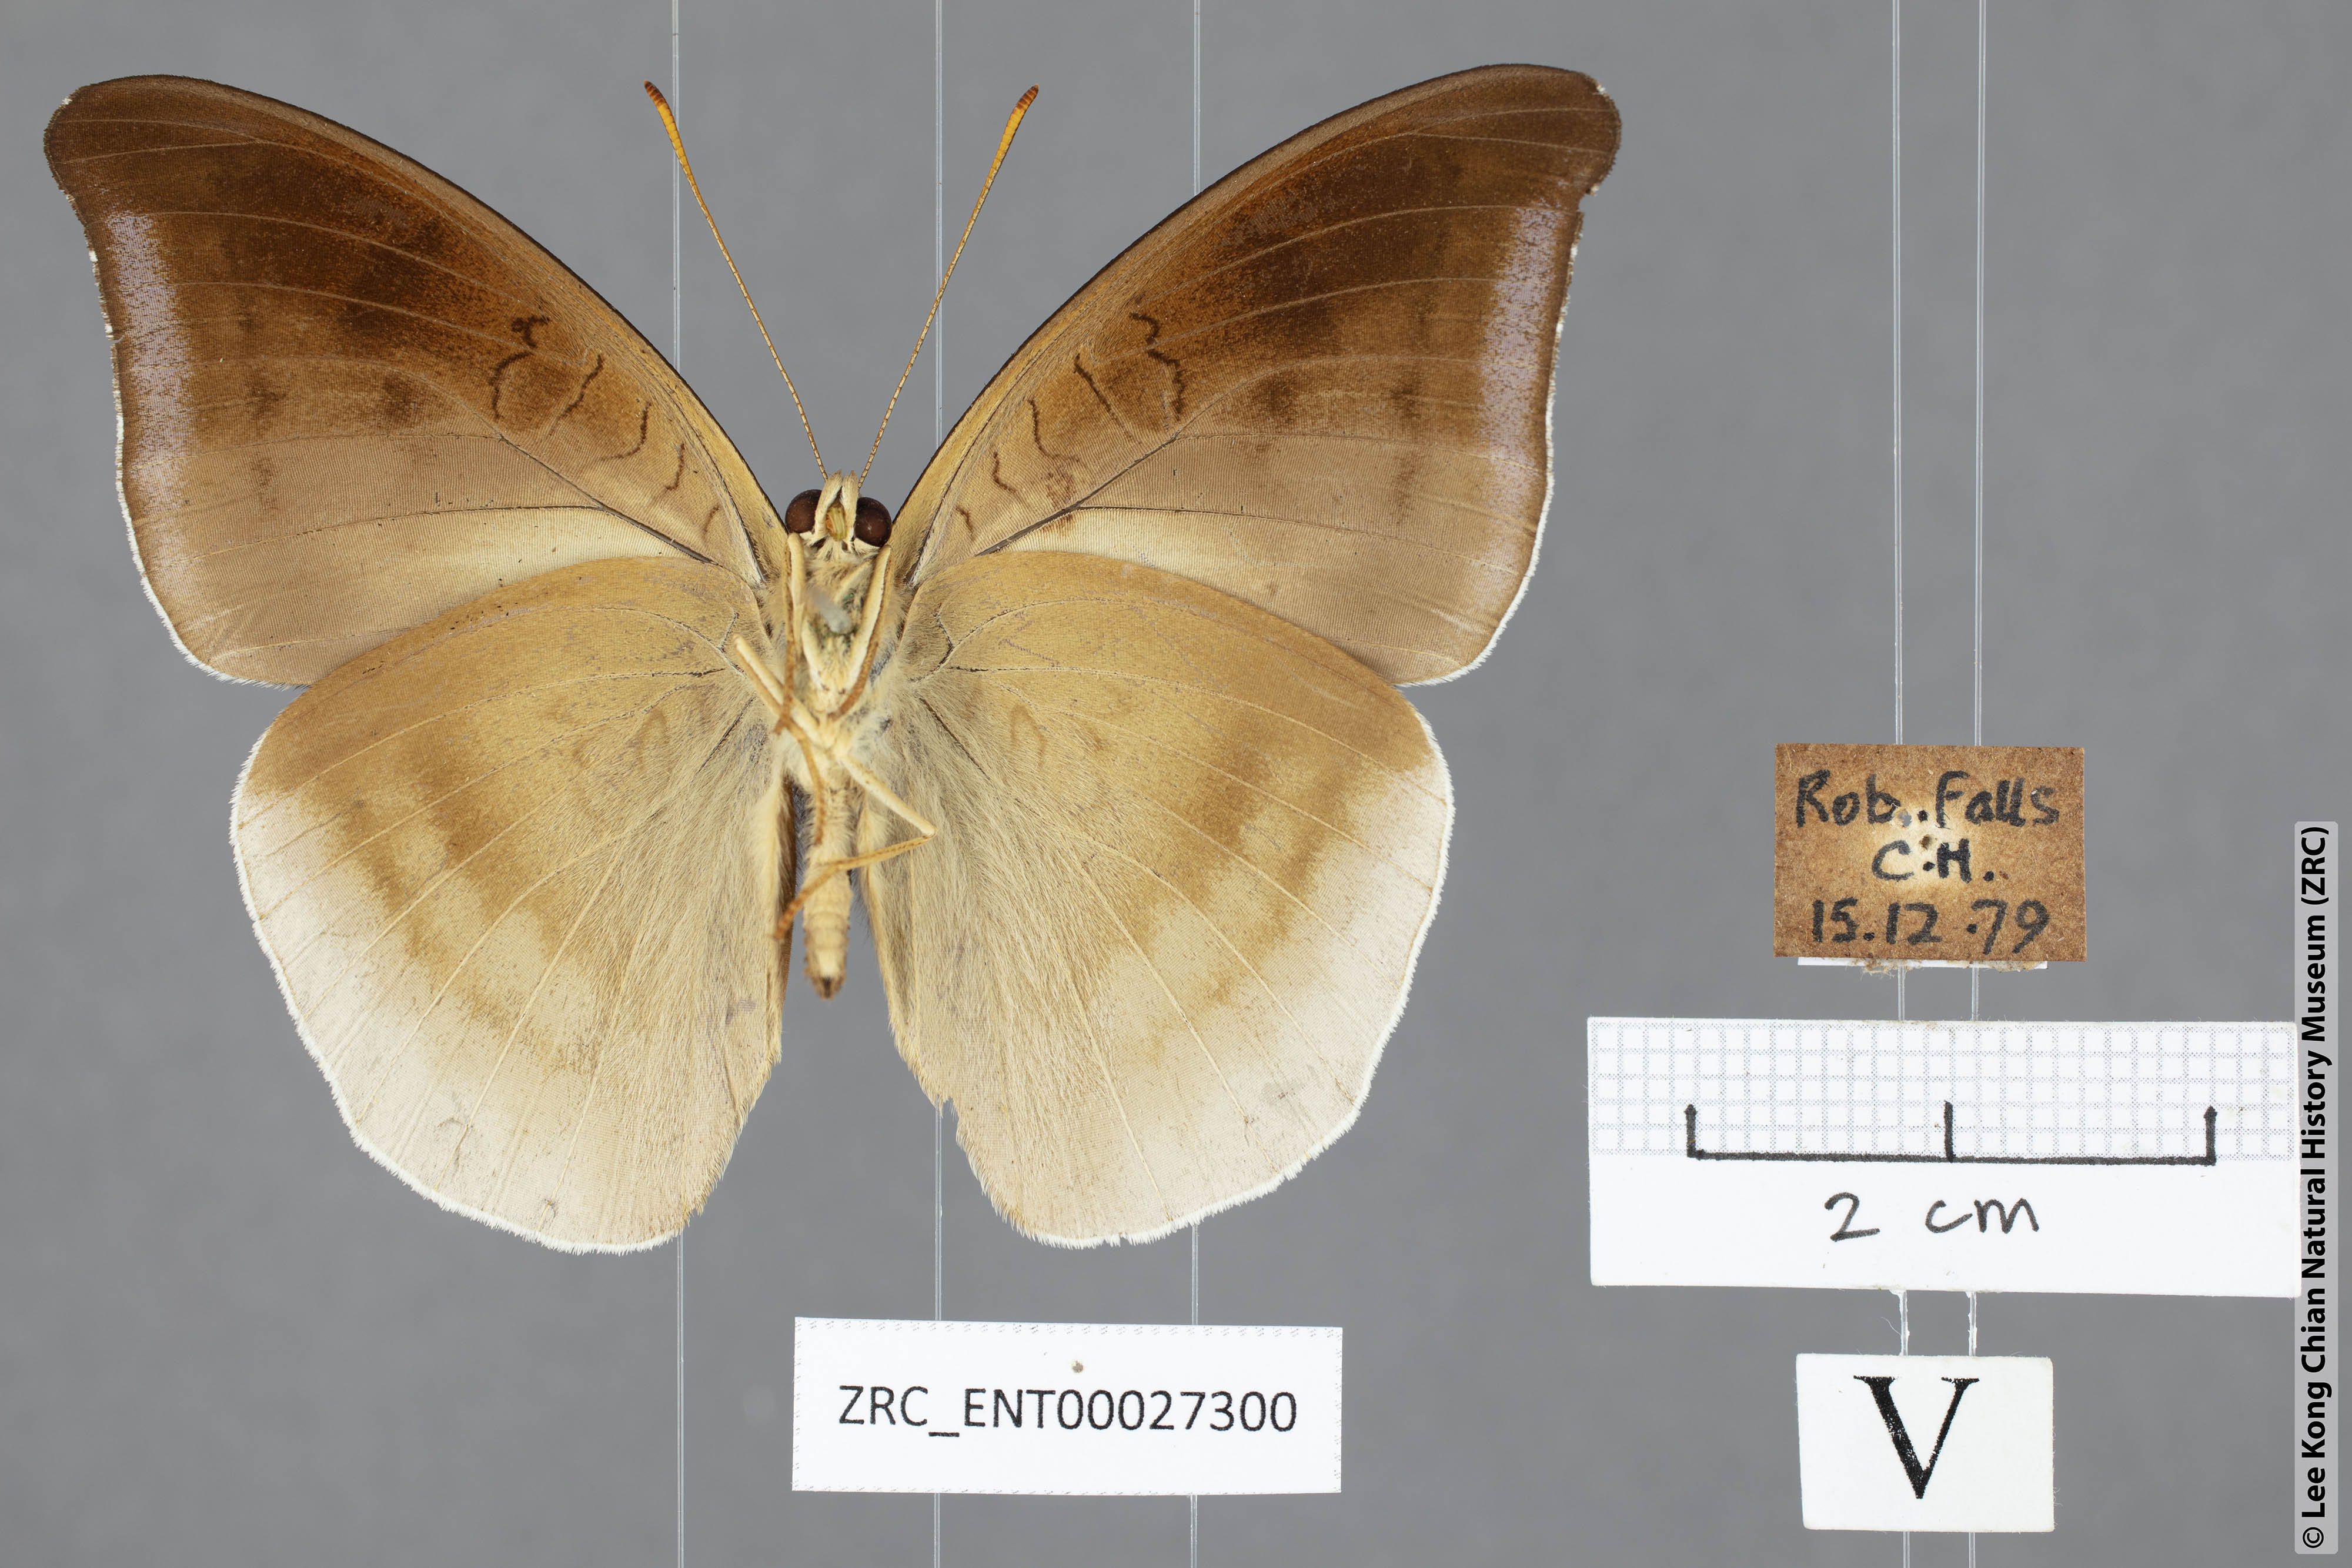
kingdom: Animalia
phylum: Arthropoda
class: Insecta
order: Lepidoptera
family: Nymphalidae
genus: Tanaecia
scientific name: Tanaecia lepidea
